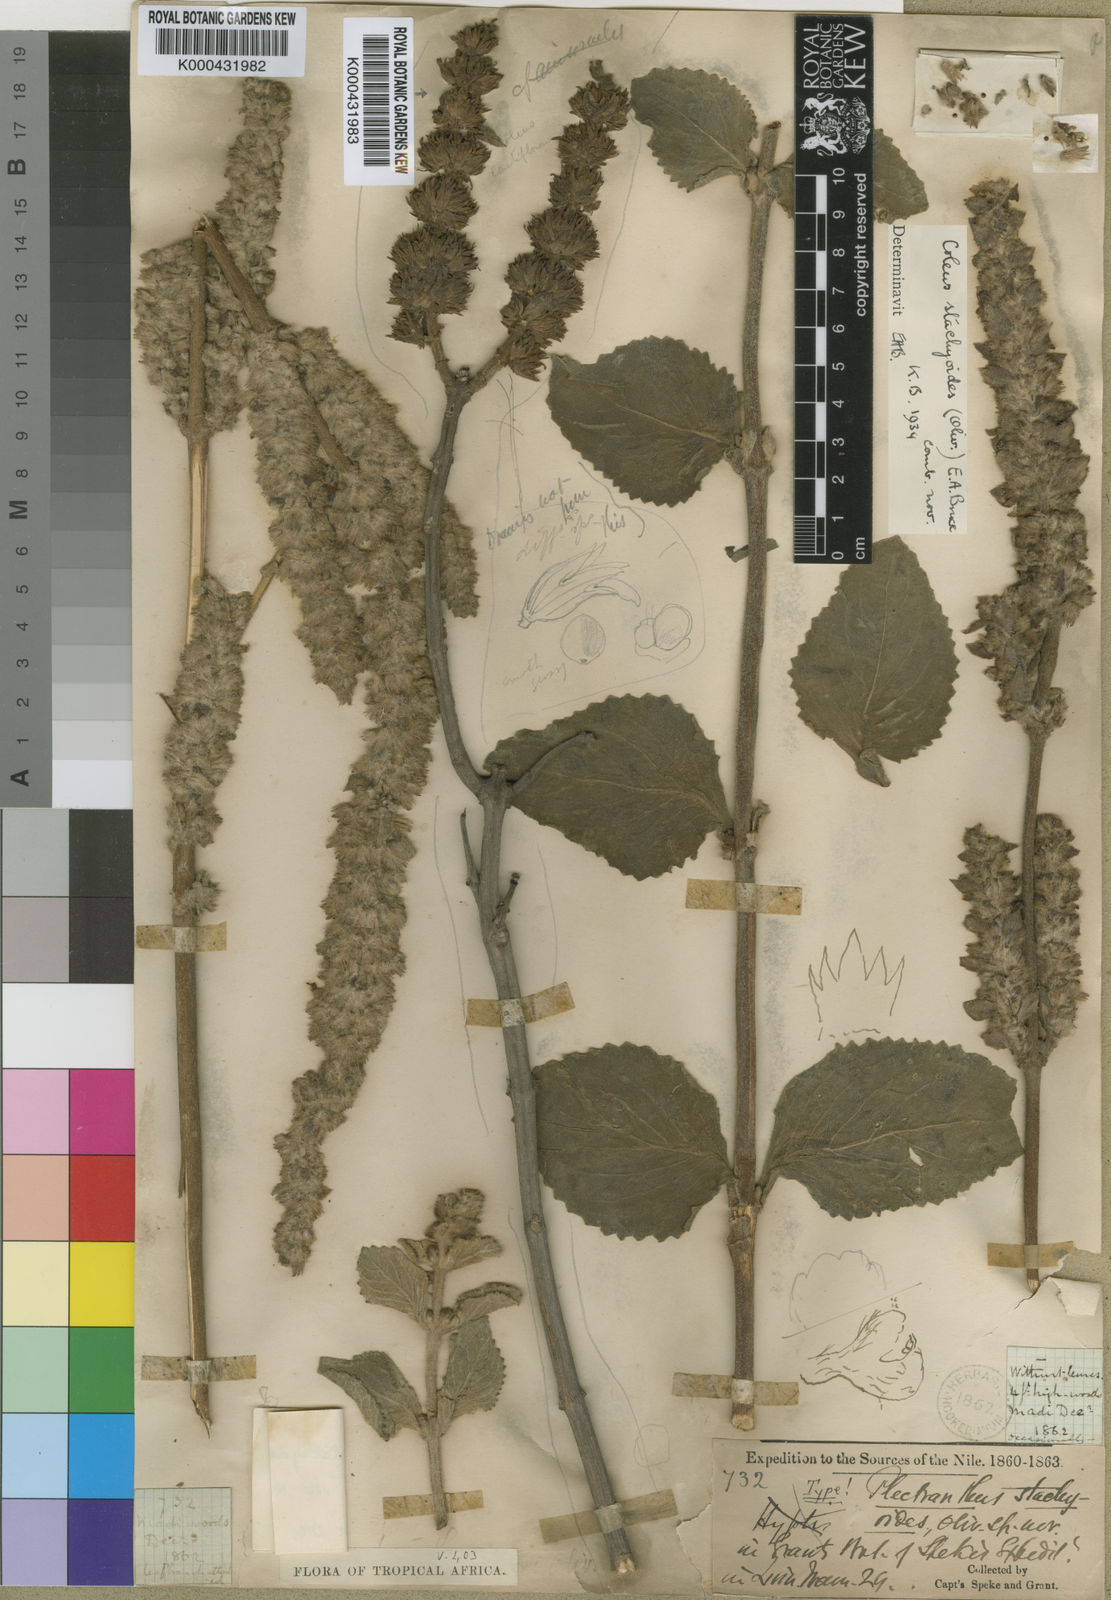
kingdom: Plantae
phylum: Tracheophyta
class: Magnoliopsida
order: Lamiales
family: Lamiaceae
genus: Coleus
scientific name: Coleus stachyoides
